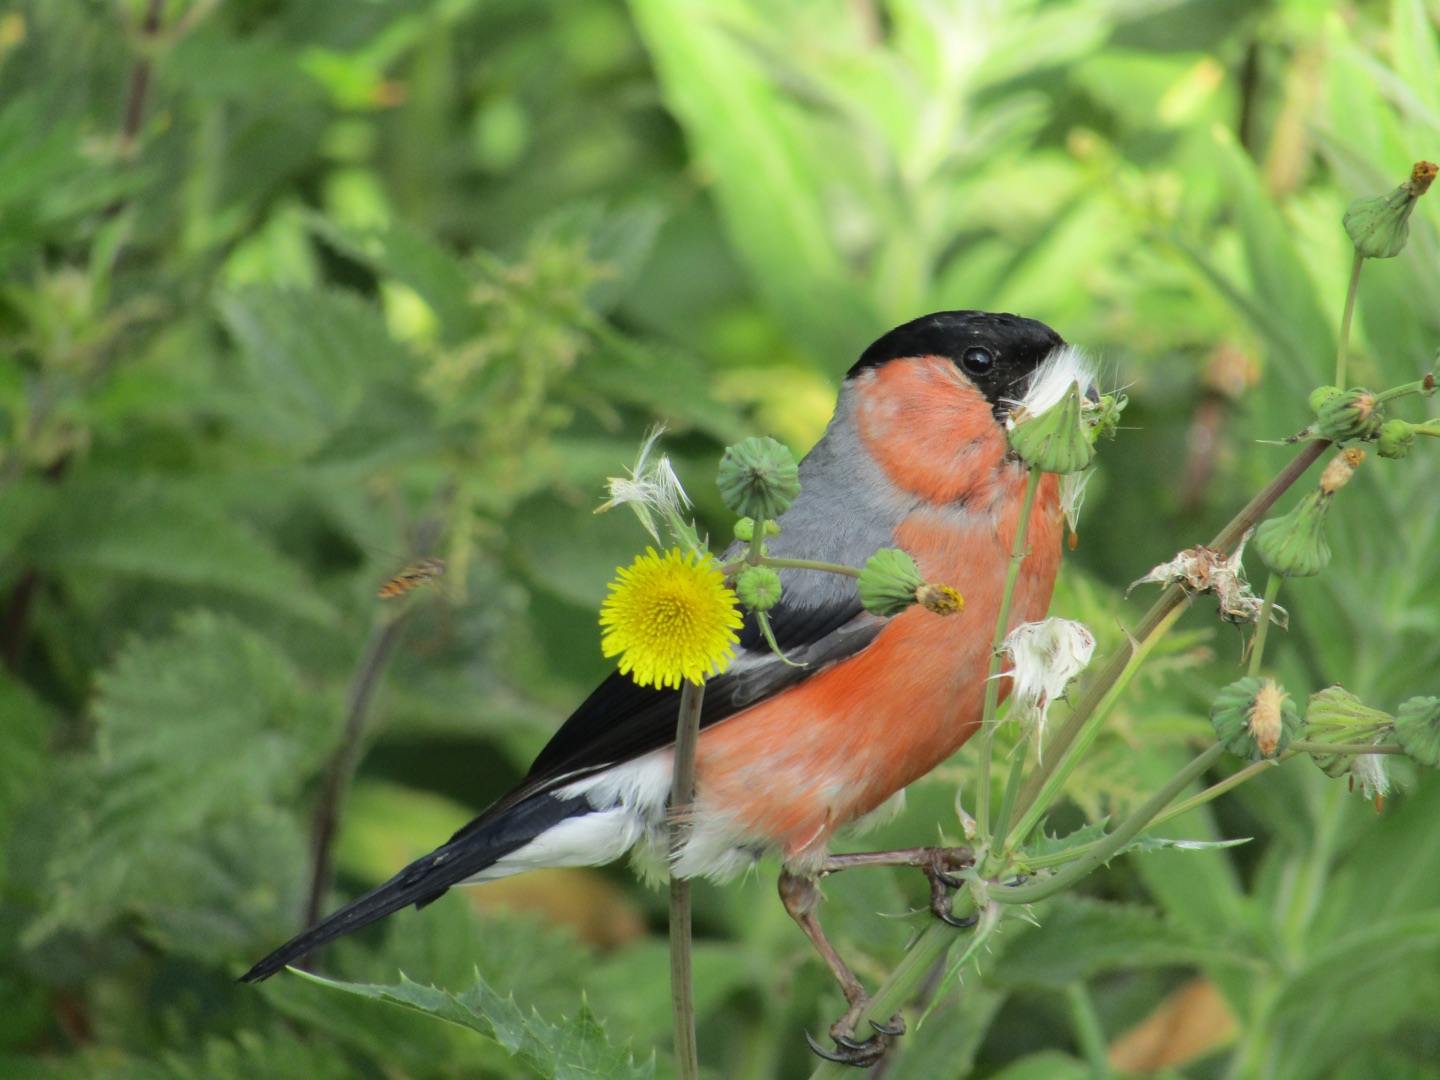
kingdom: Animalia
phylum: Chordata
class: Aves
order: Passeriformes
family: Fringillidae
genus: Pyrrhula
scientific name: Pyrrhula pyrrhula
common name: Dompap
